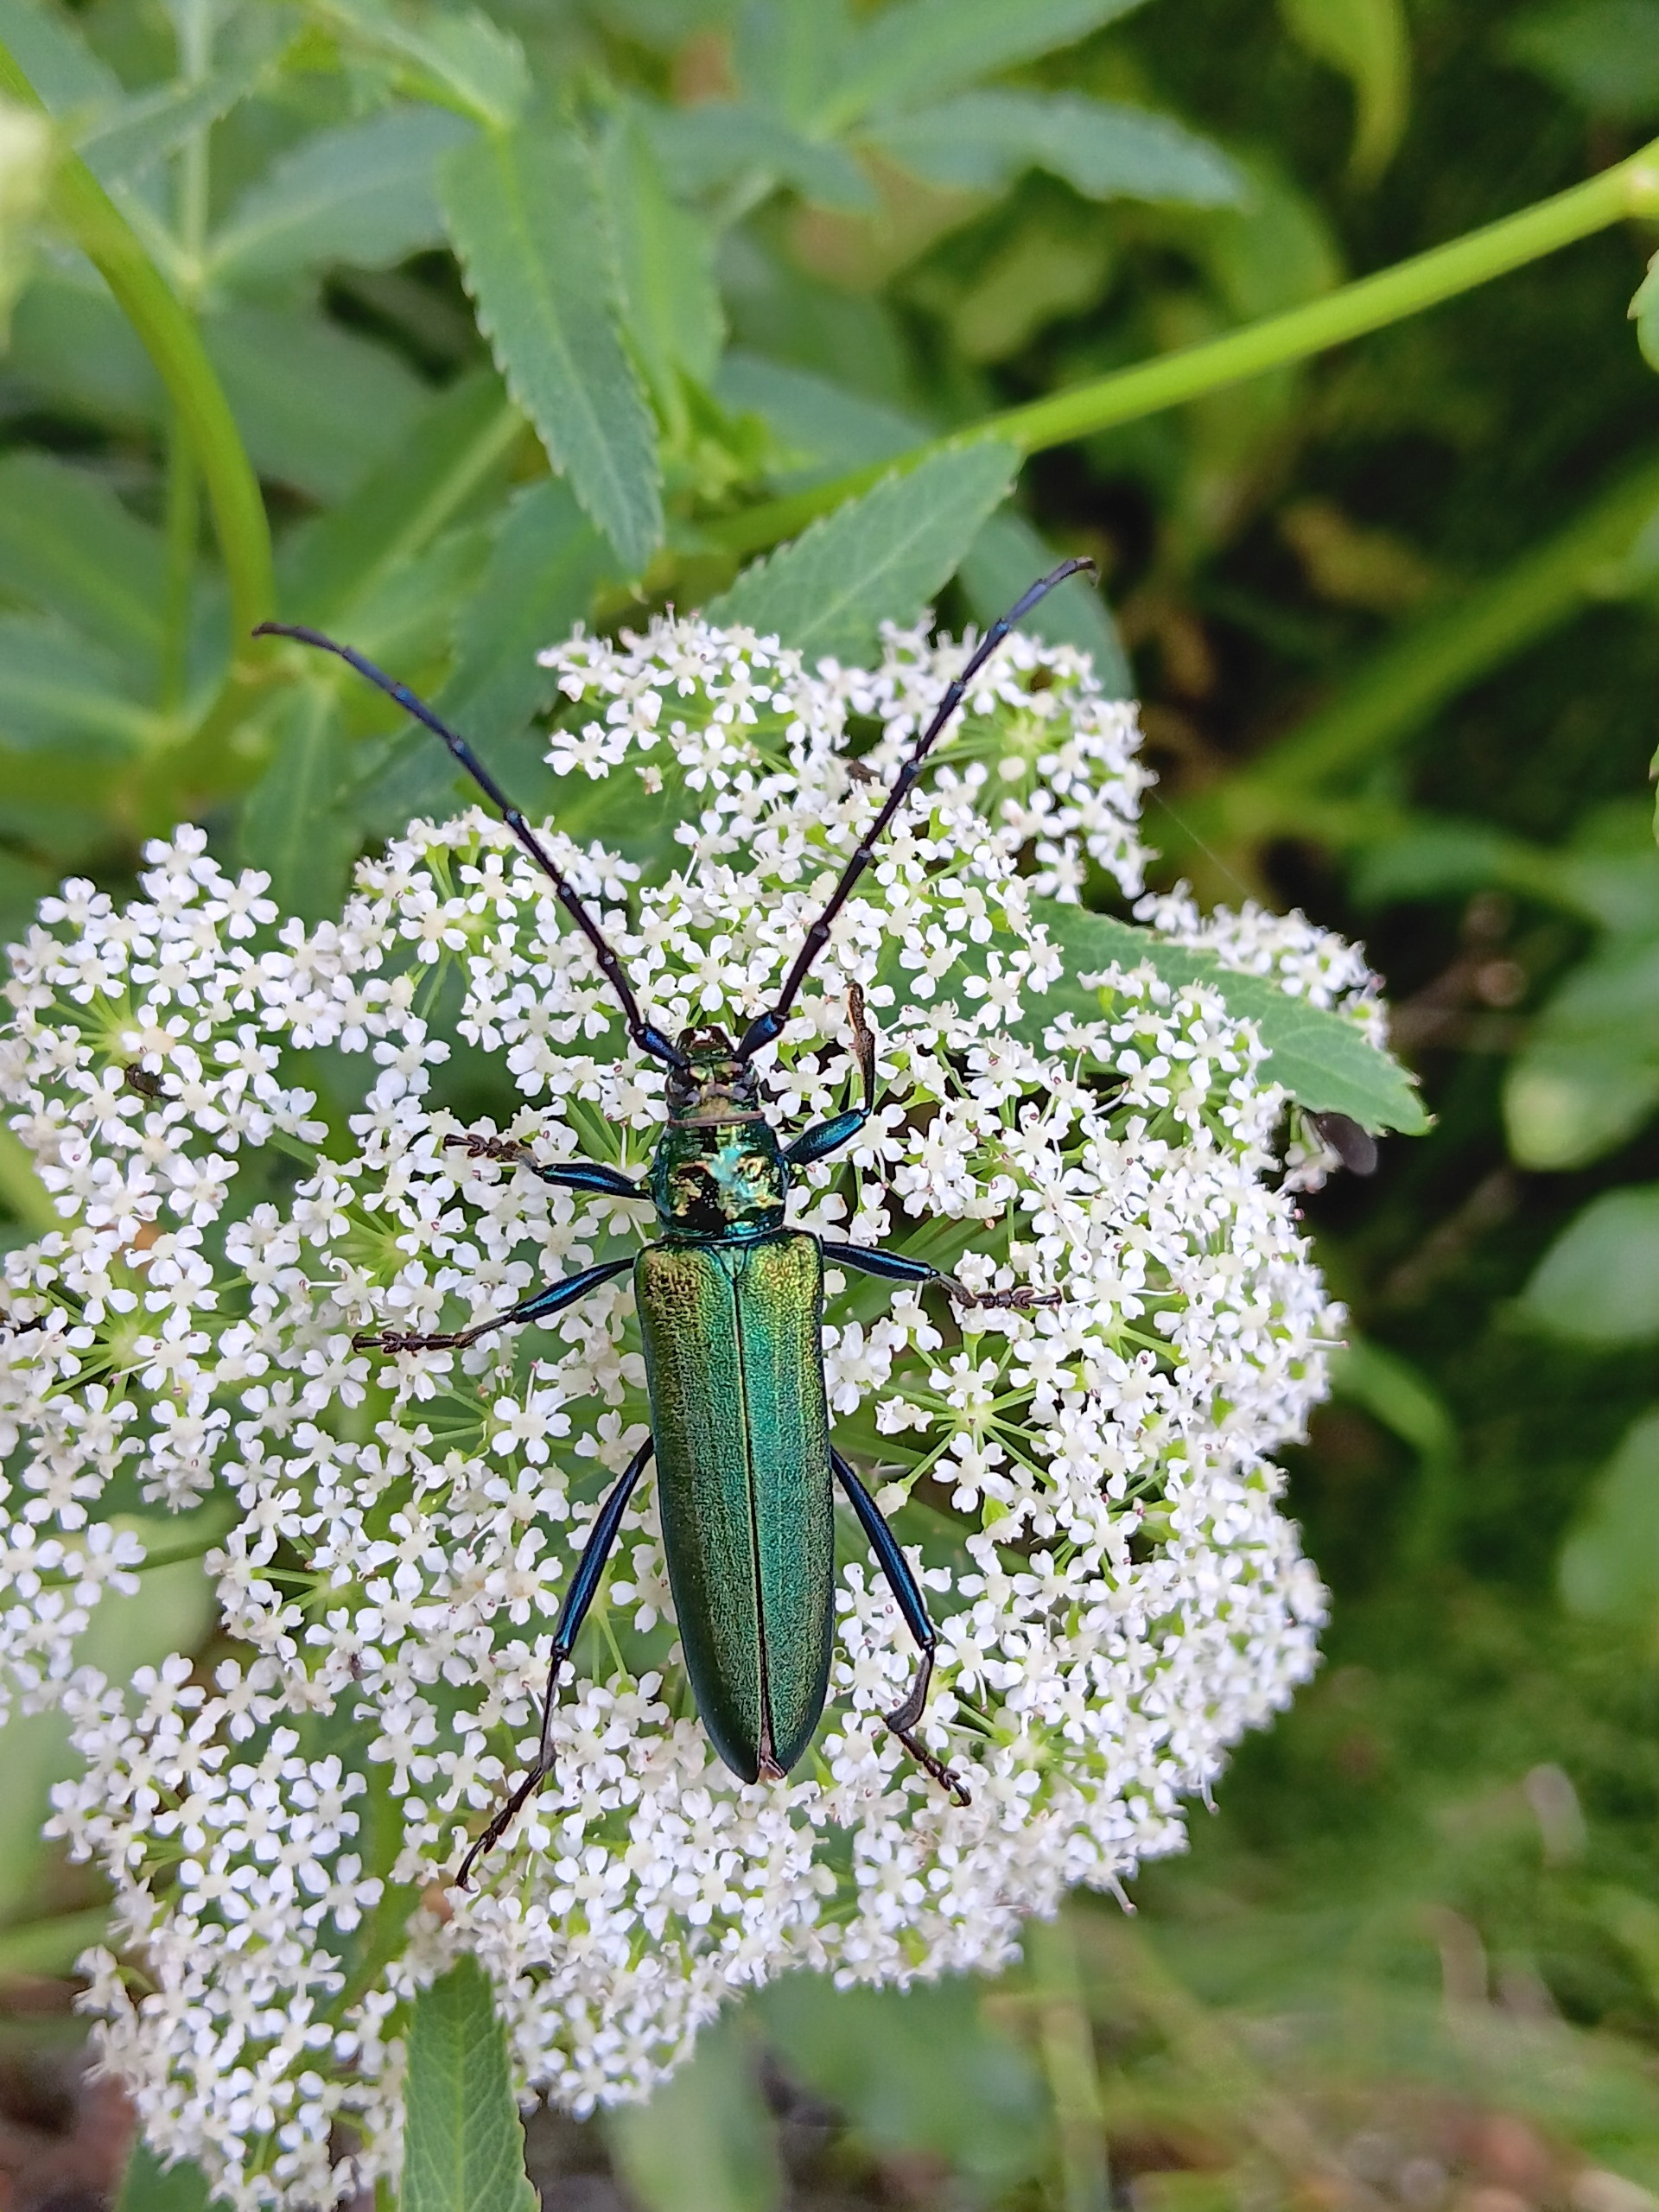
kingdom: Animalia
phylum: Arthropoda
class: Insecta
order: Coleoptera
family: Cerambycidae
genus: Aromia
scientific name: Aromia moschata
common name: Moskusbuk
